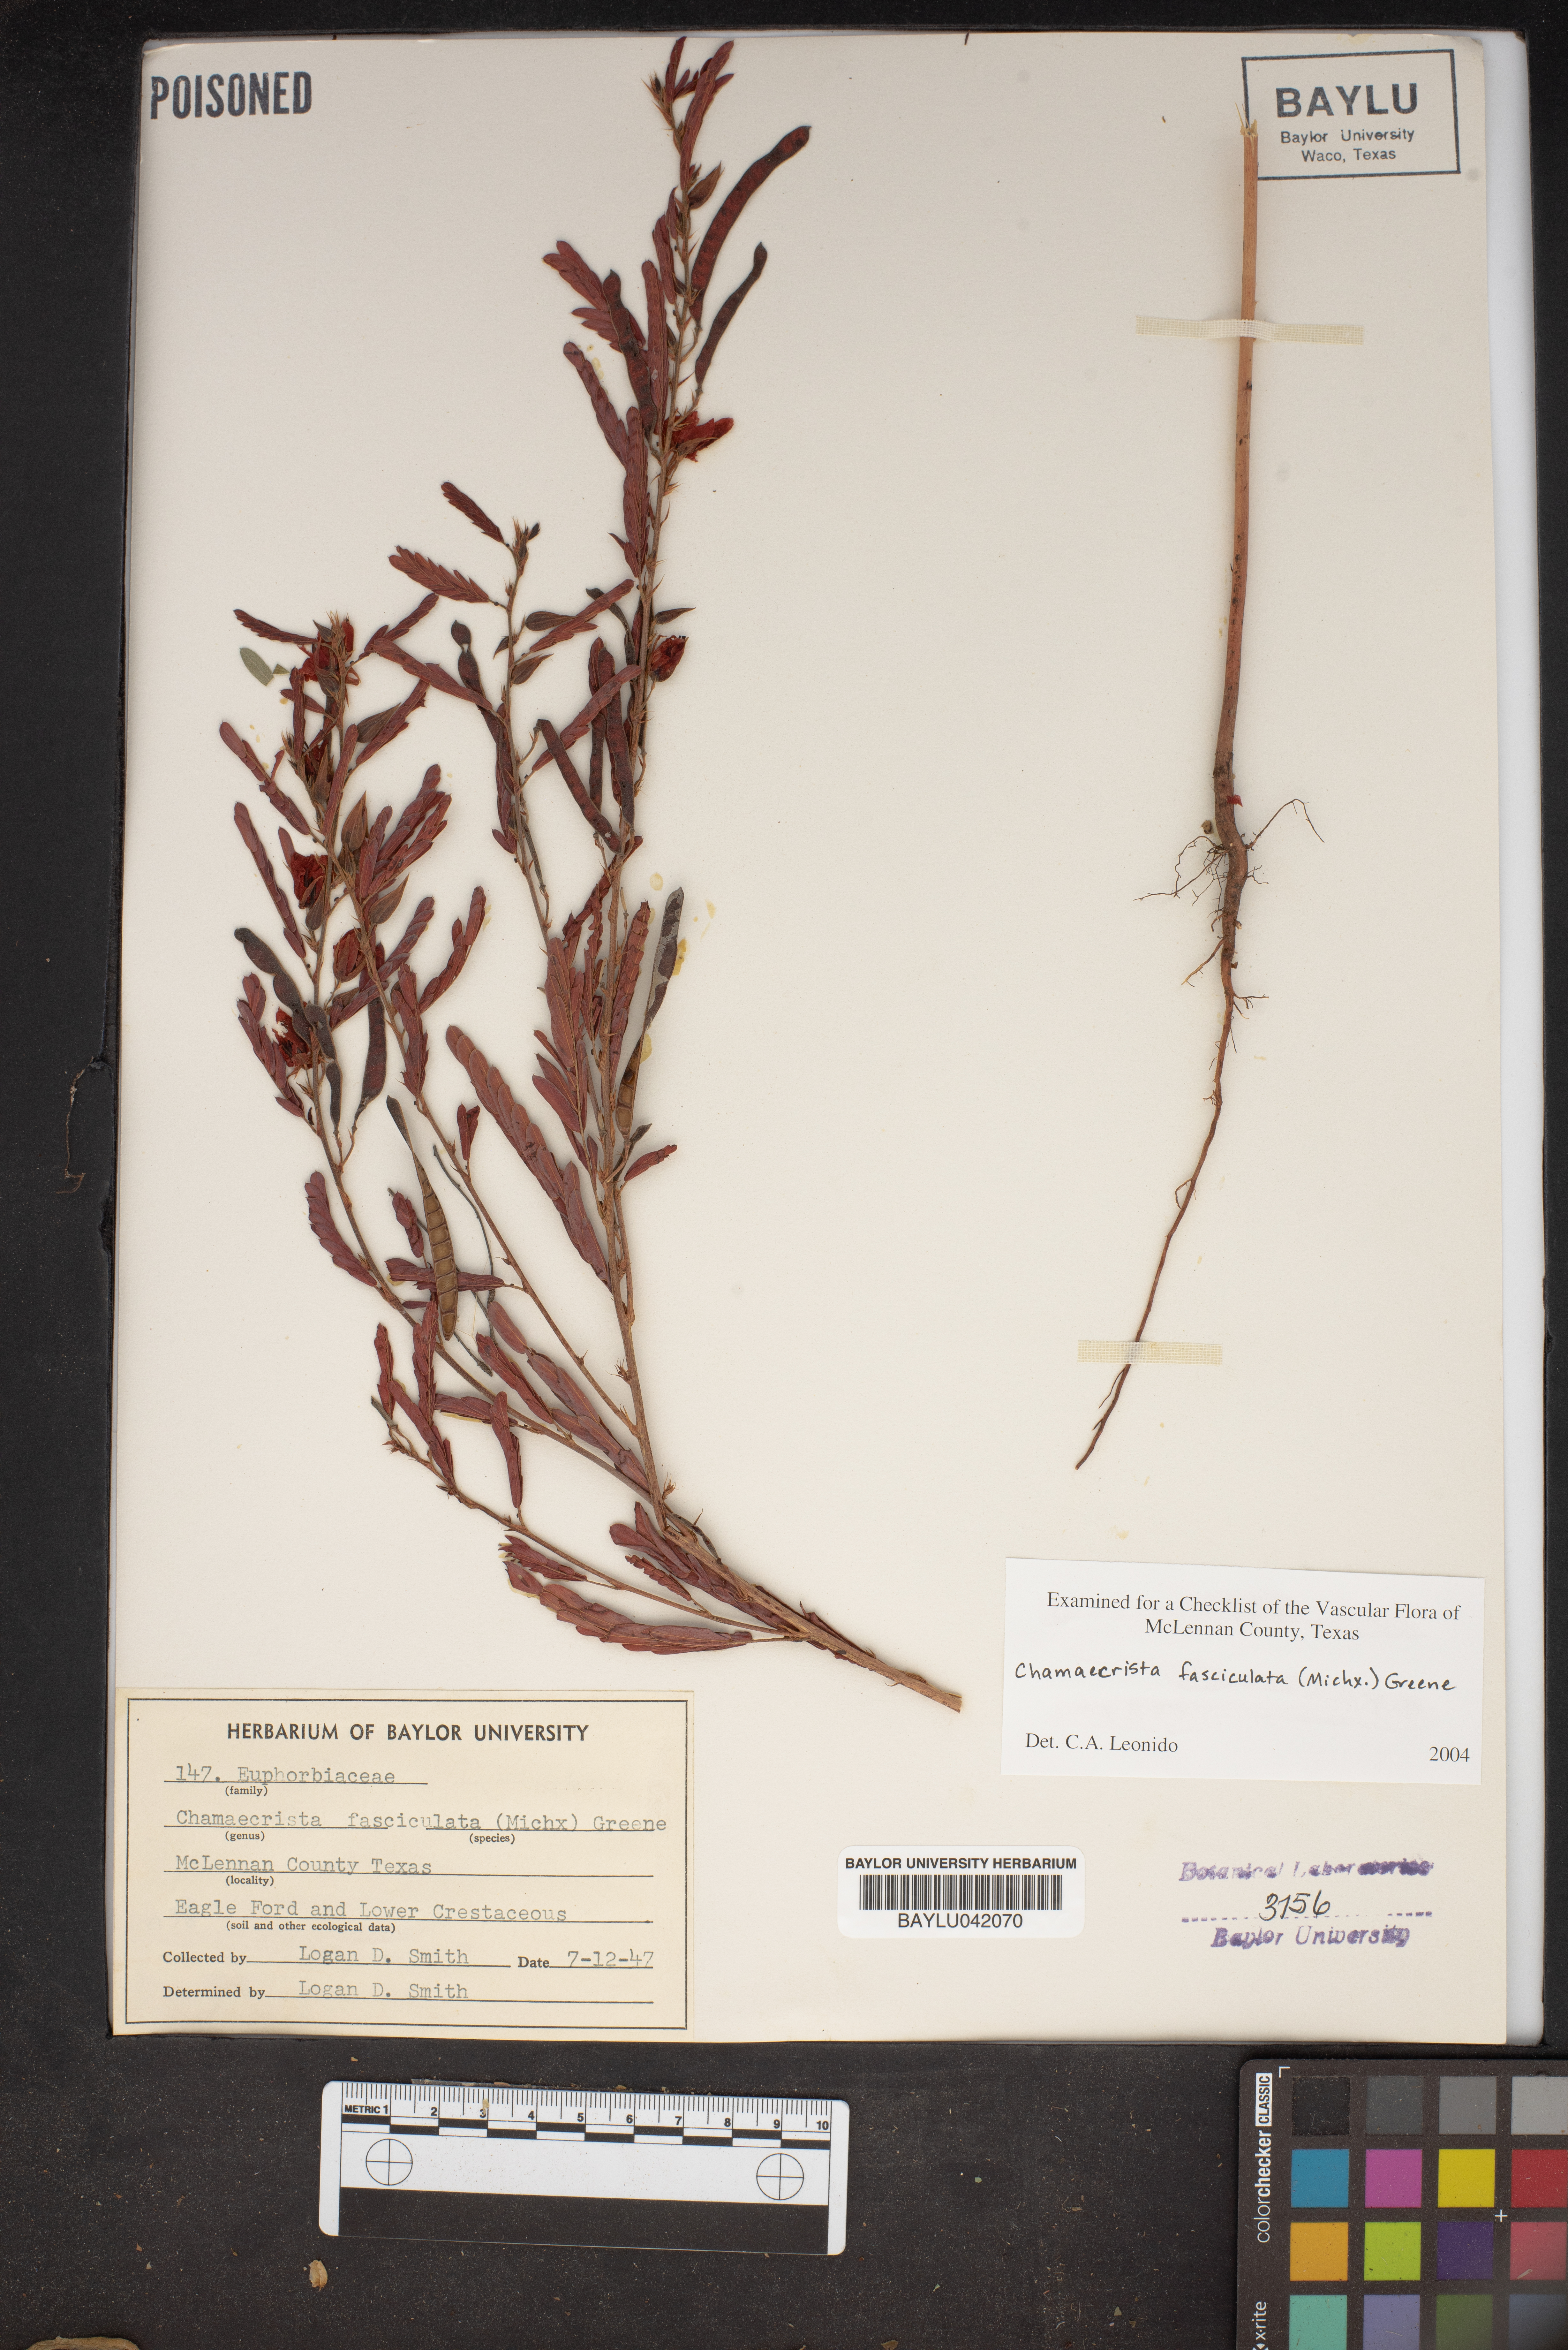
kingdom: Plantae
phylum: Tracheophyta
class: Magnoliopsida
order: Fabales
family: Fabaceae
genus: Chamaecrista
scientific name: Chamaecrista fasciculata
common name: Golden cassia
